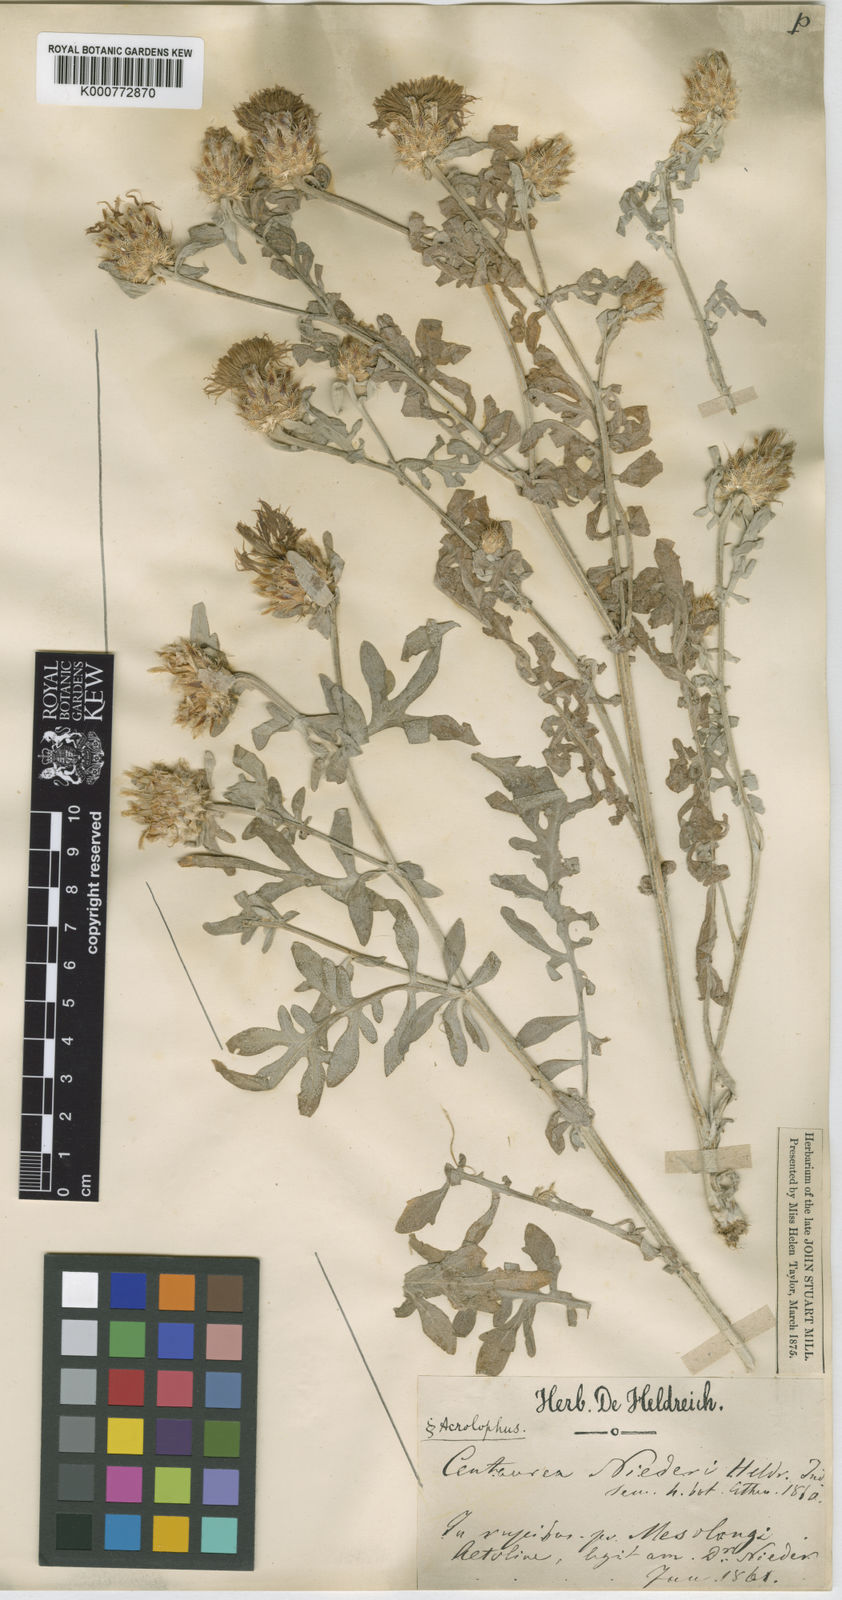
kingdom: Plantae
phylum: Tracheophyta
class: Magnoliopsida
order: Asterales
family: Asteraceae
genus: Centaurea
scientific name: Centaurea niederi
